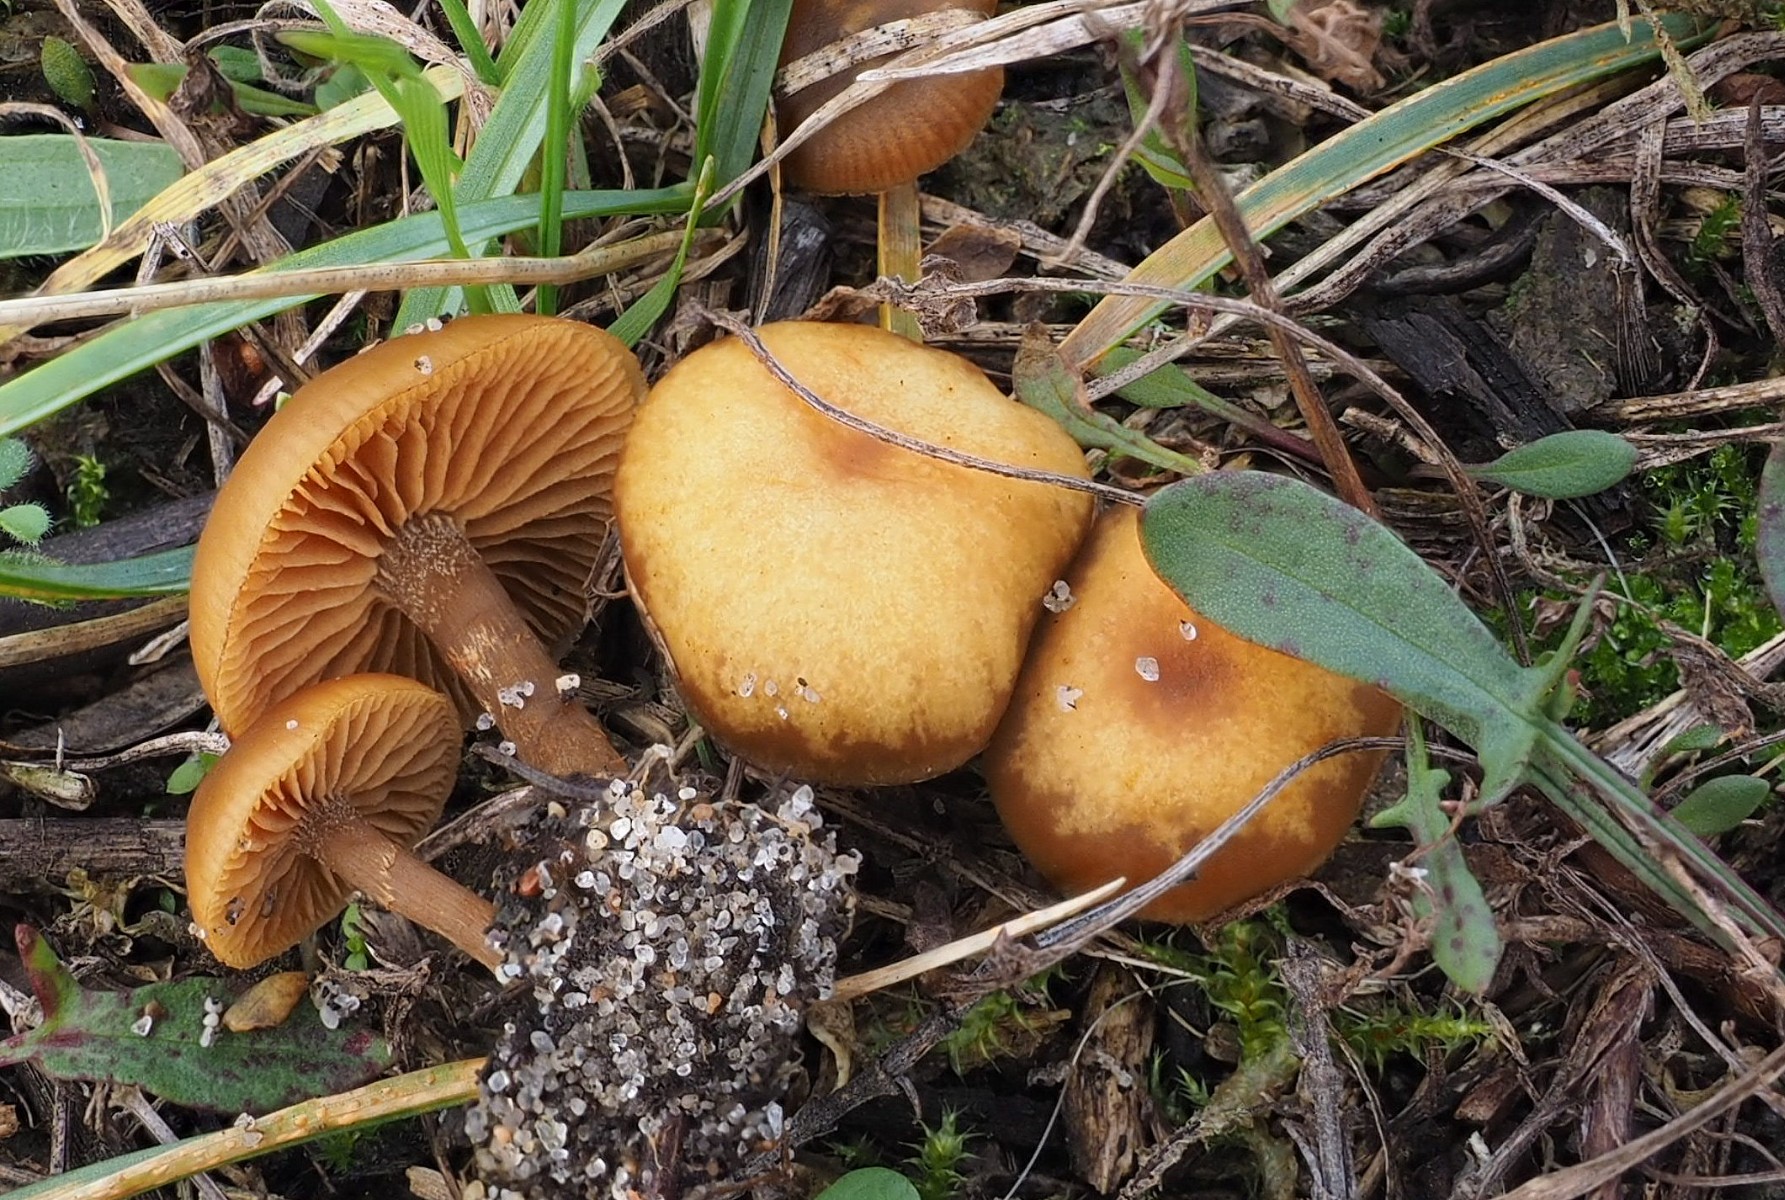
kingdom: Fungi
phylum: Basidiomycota
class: Agaricomycetes
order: Agaricales
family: Hymenogastraceae
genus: Galerina
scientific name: Galerina esteve-raventosii
